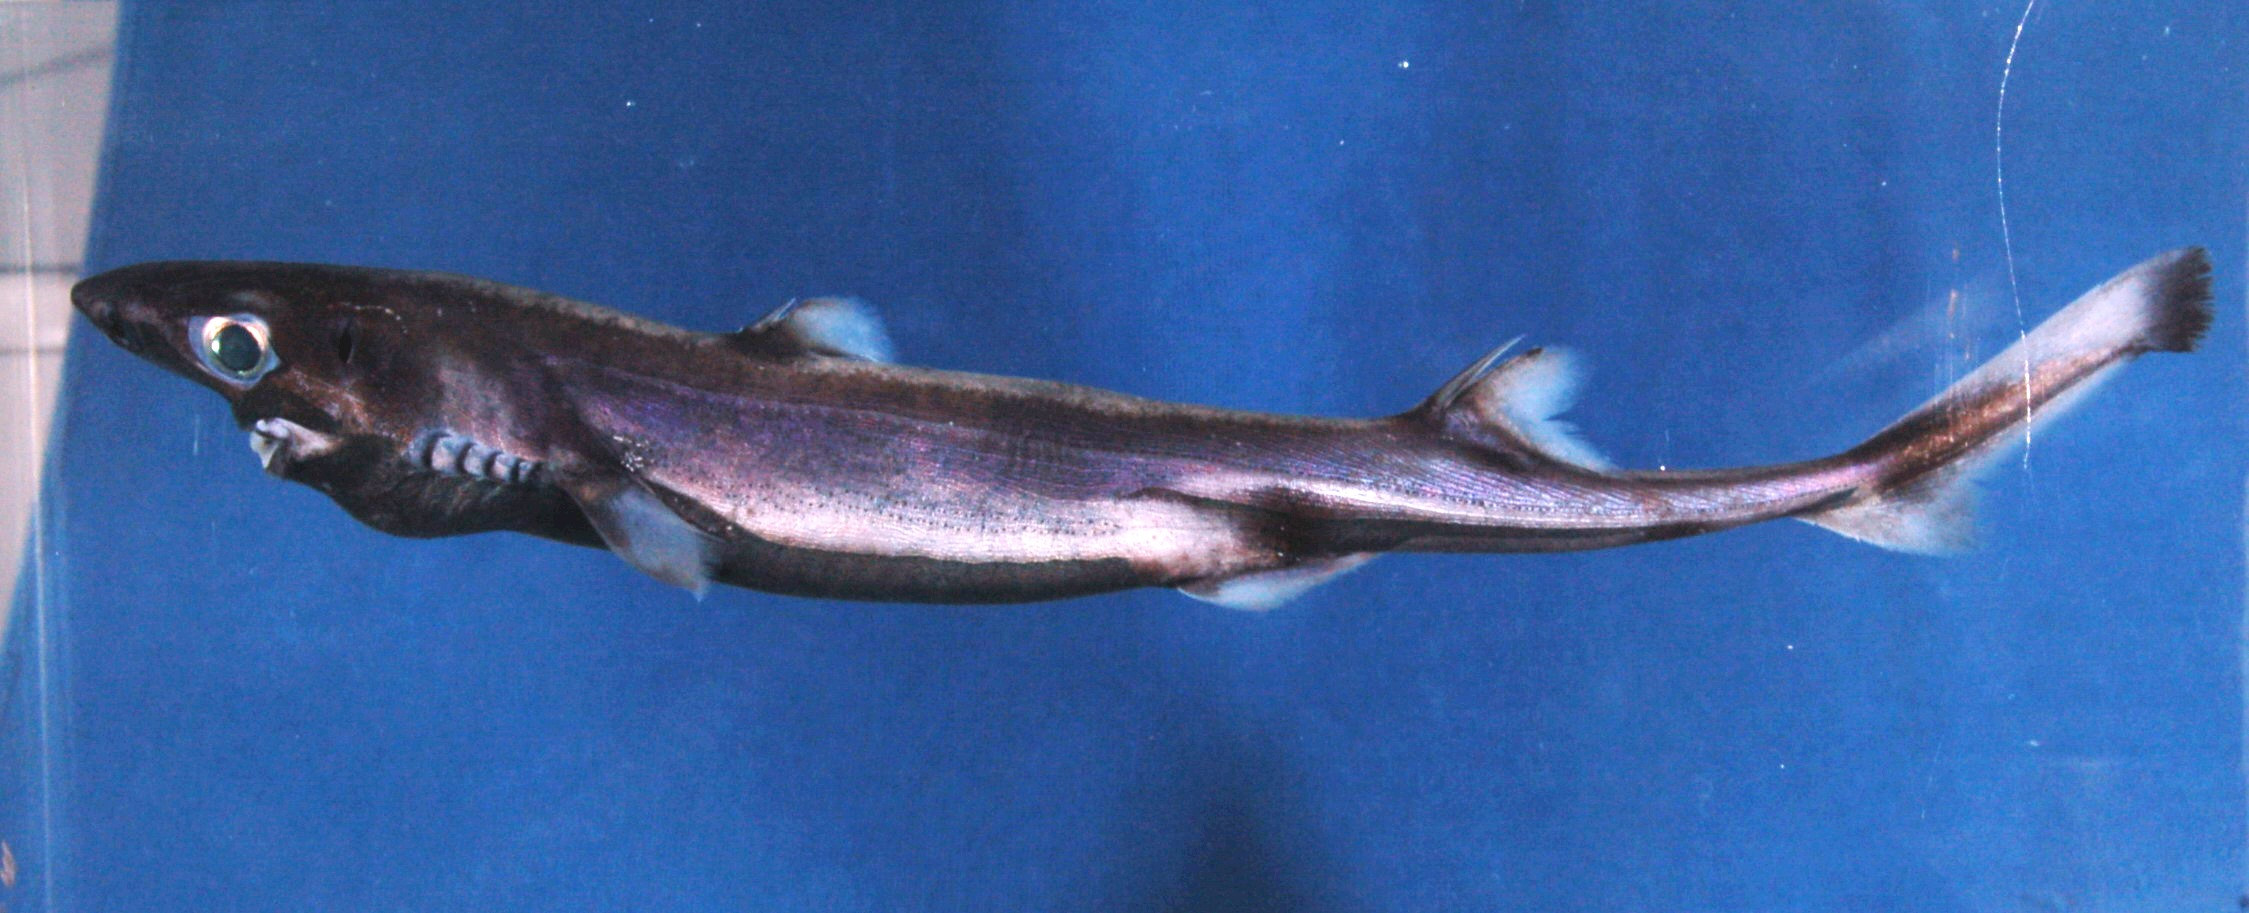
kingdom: Animalia
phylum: Chordata
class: Elasmobranchii
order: Squaliformes
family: Etmopteridae
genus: Etmopterus
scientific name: Etmopterus
